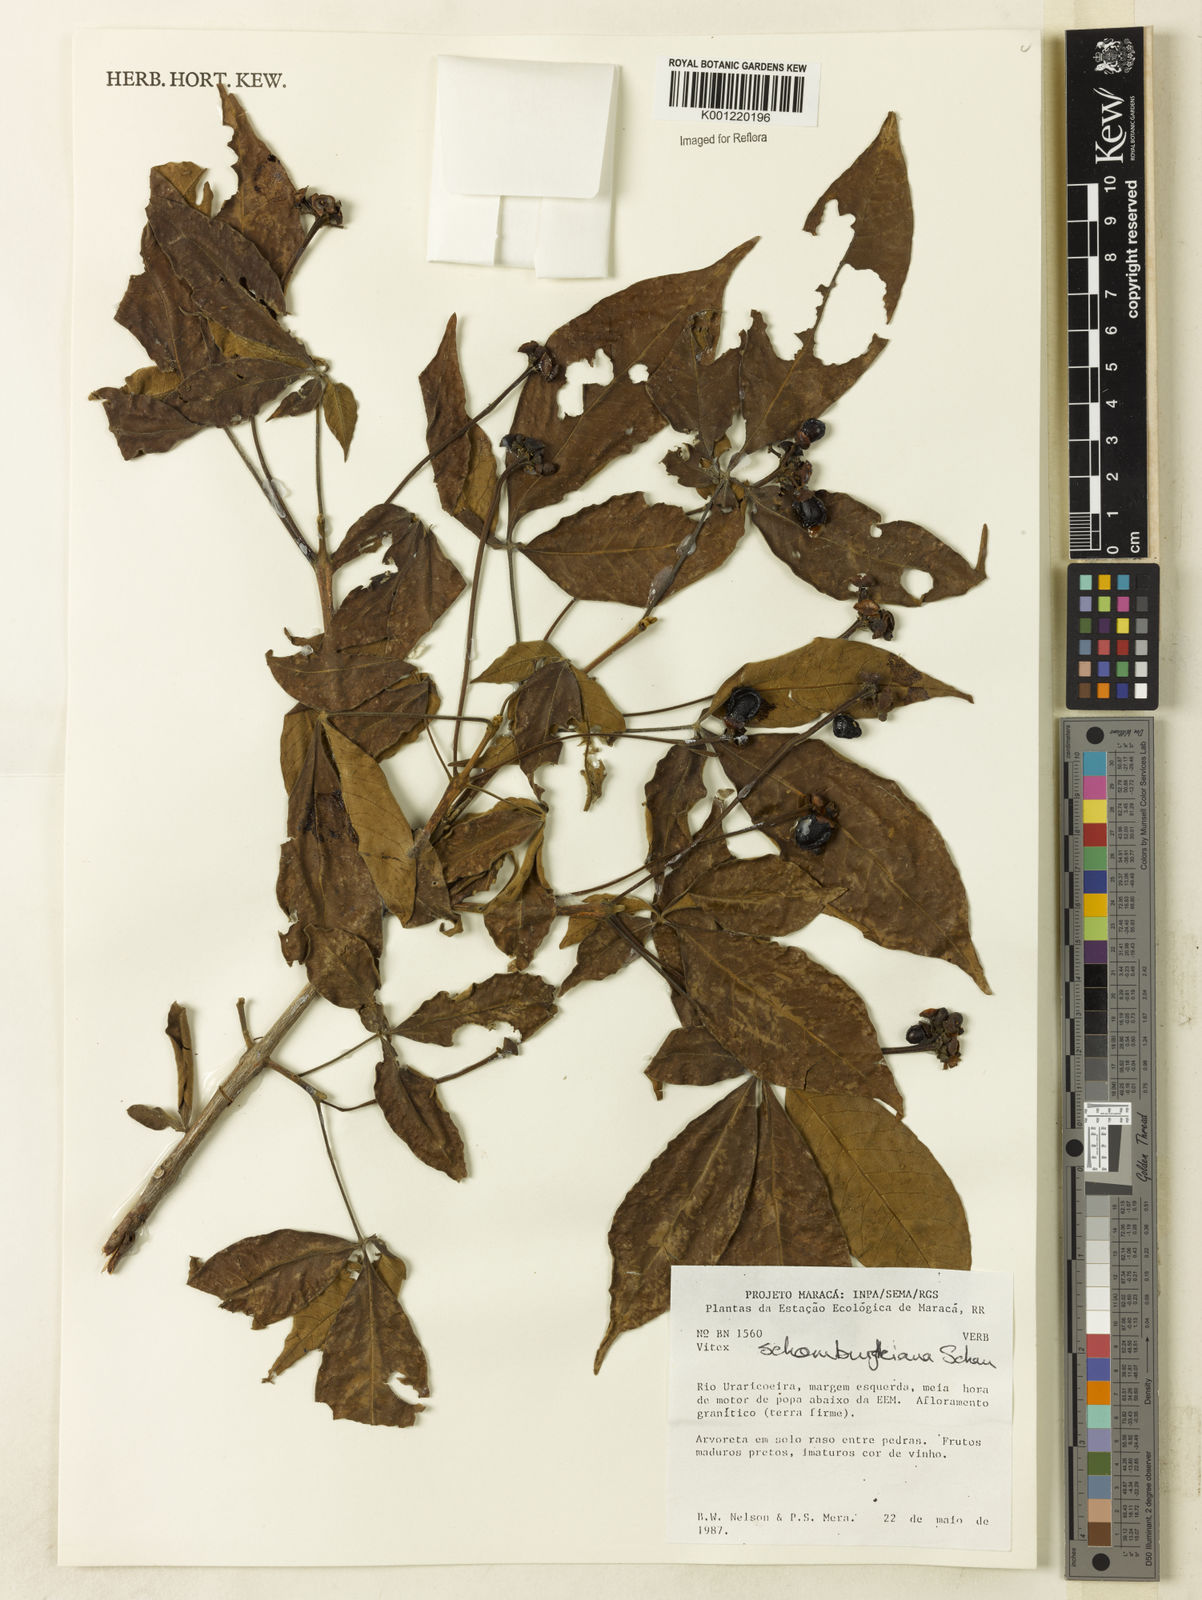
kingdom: Plantae
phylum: Tracheophyta
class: Magnoliopsida
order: Lamiales
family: Lamiaceae
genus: Vitex
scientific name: Vitex schomburgkiana
